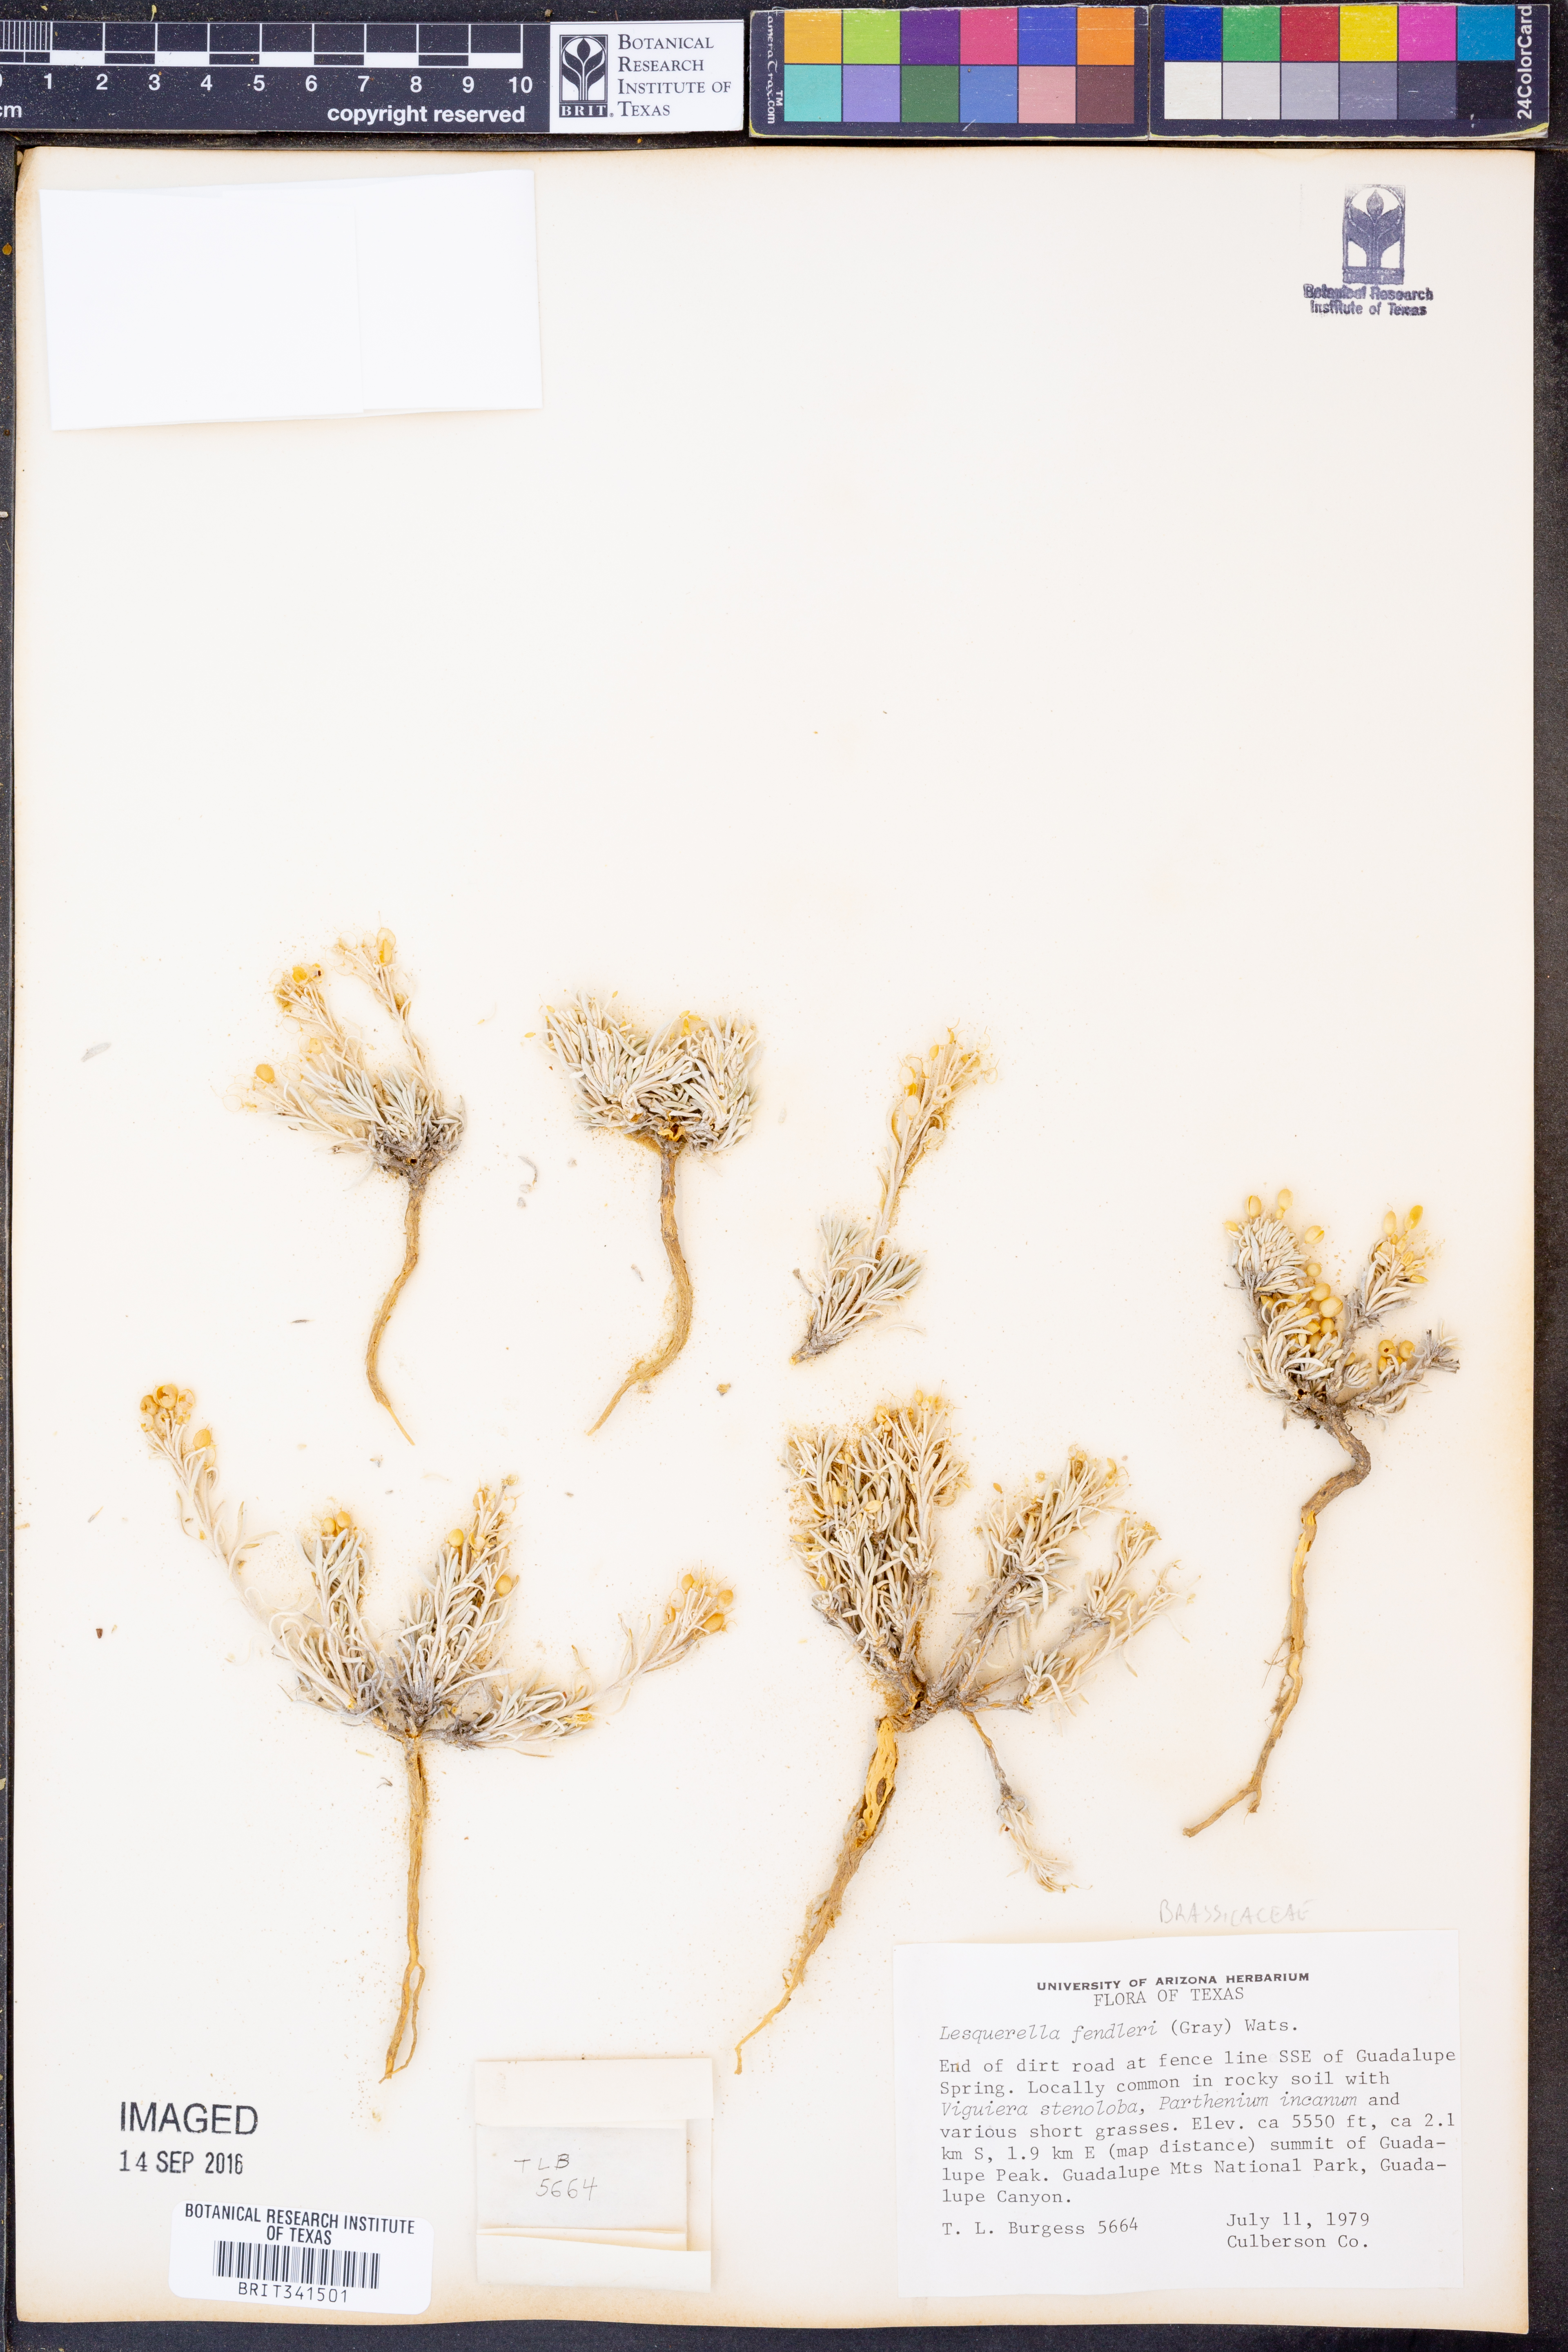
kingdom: Plantae
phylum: Tracheophyta
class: Magnoliopsida
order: Brassicales
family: Brassicaceae
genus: Physaria
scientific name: Physaria fendleri
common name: Fendler's bladderpod
